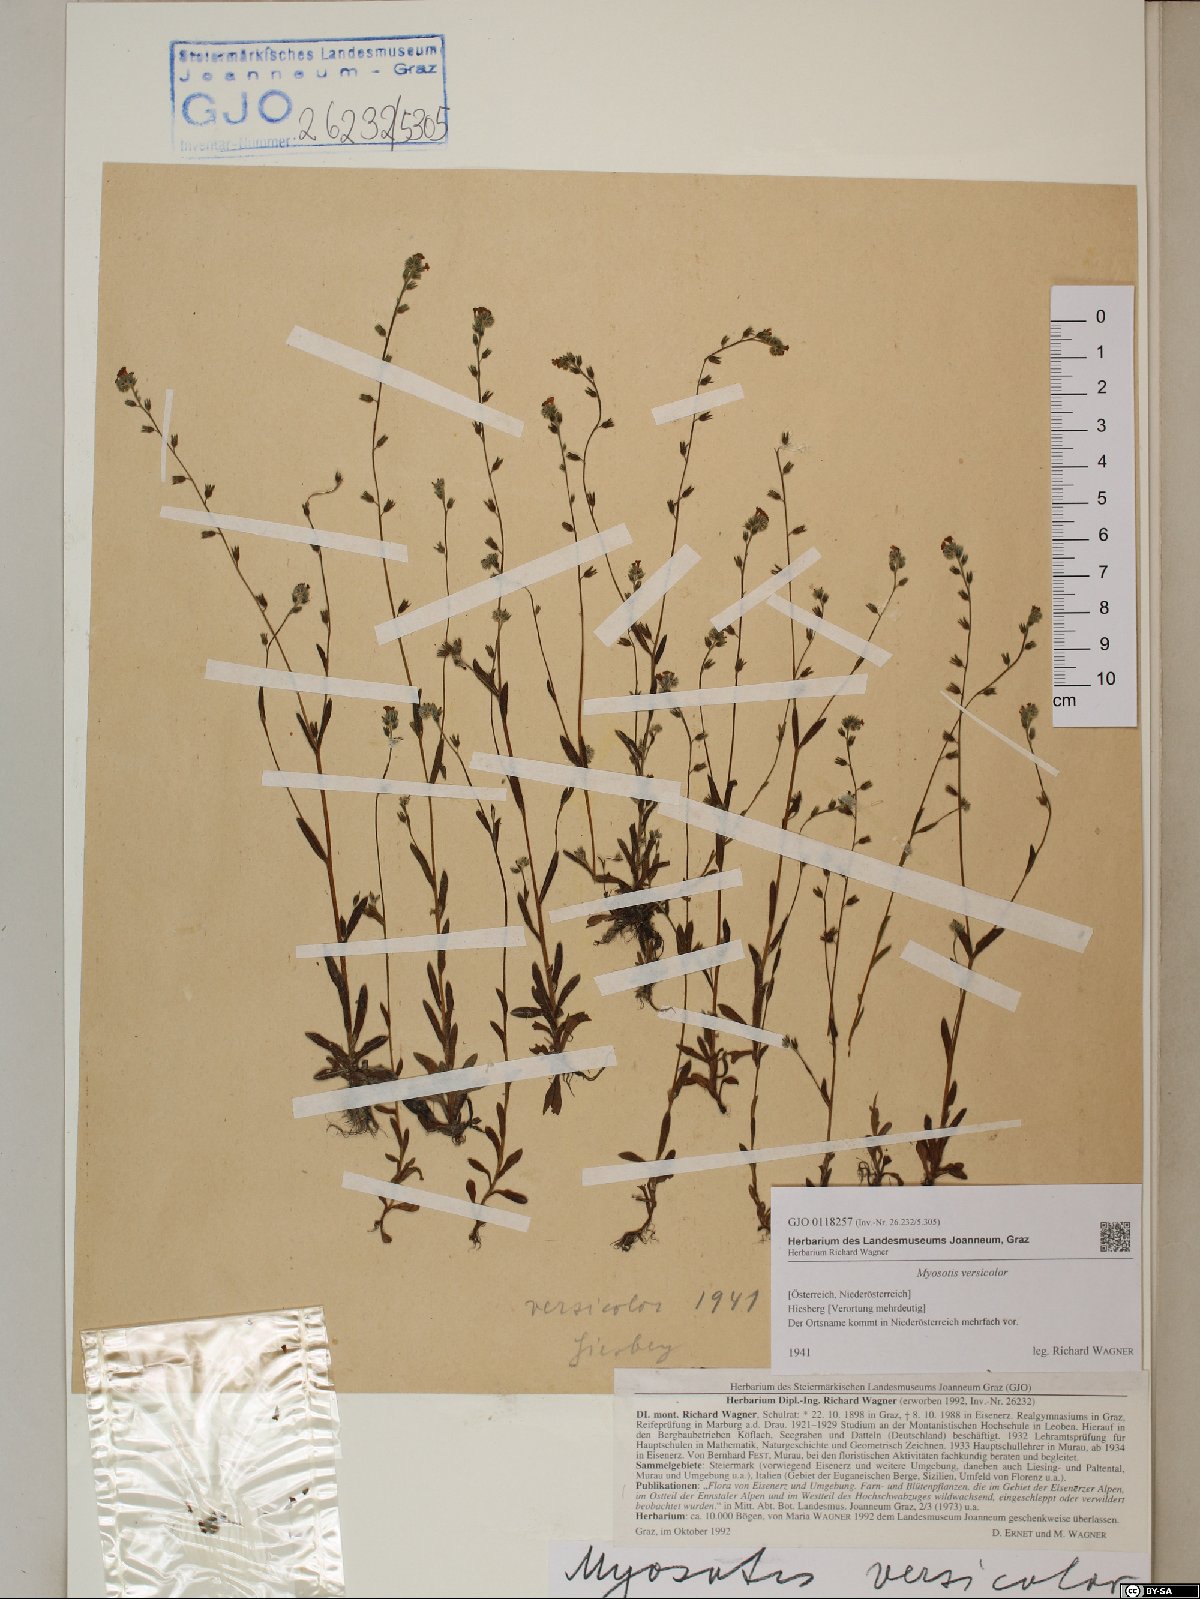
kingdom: Plantae
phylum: Tracheophyta
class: Magnoliopsida
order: Boraginales
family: Boraginaceae
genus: Myosotis
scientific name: Myosotis discolor
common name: Changing forget-me-not
